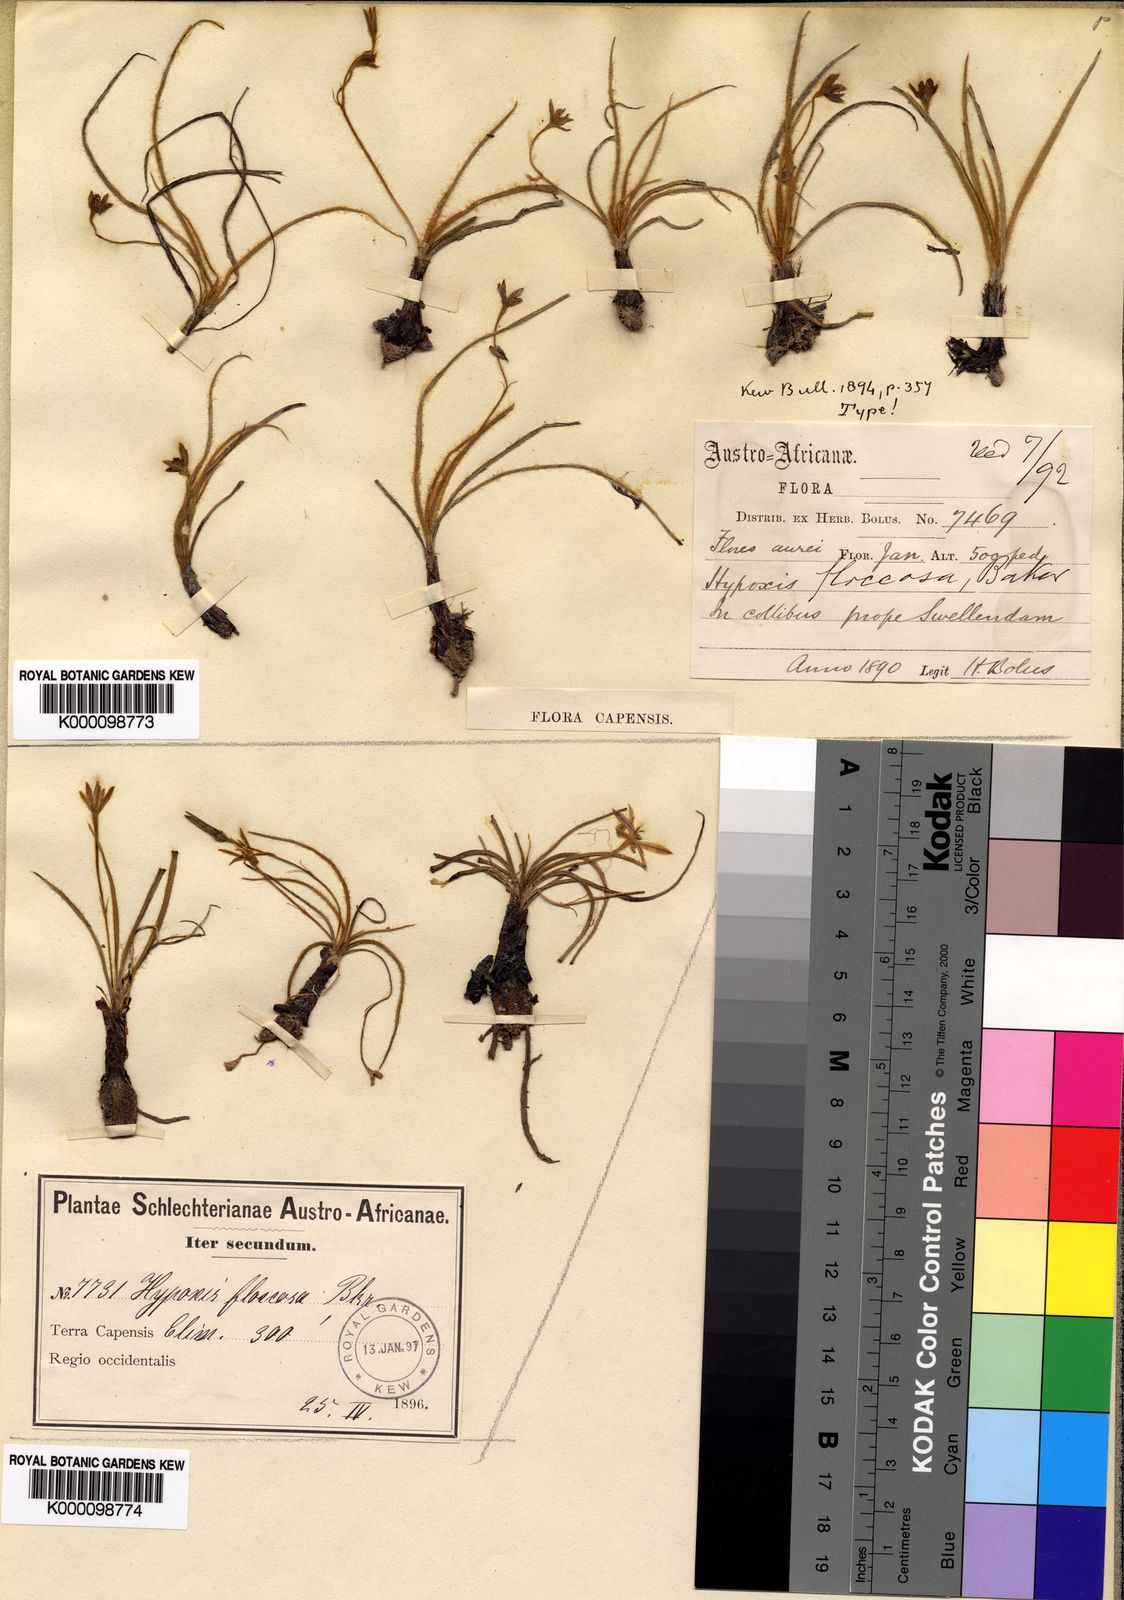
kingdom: Plantae
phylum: Tracheophyta
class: Liliopsida
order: Asparagales
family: Hypoxidaceae
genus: Hypoxis
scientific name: Hypoxis floccosa
